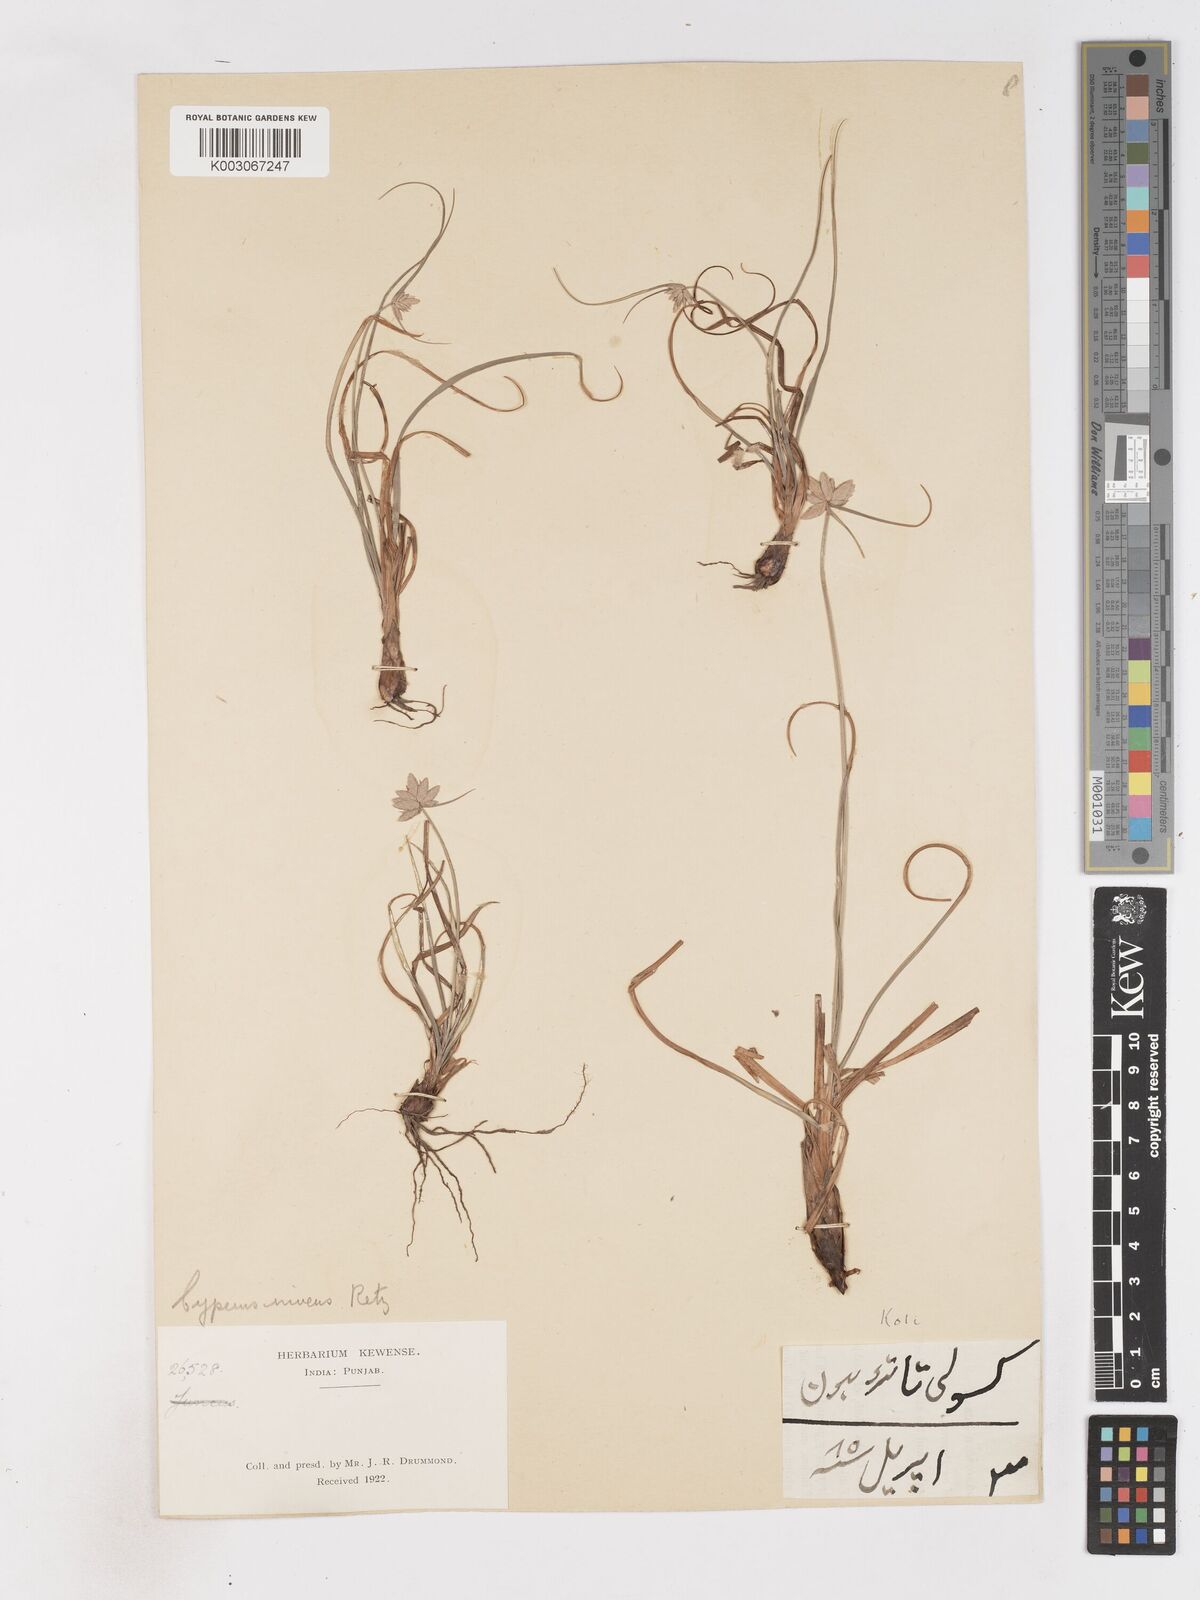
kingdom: Plantae
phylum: Tracheophyta
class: Liliopsida
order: Poales
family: Cyperaceae
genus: Cyperus
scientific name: Cyperus niveus
